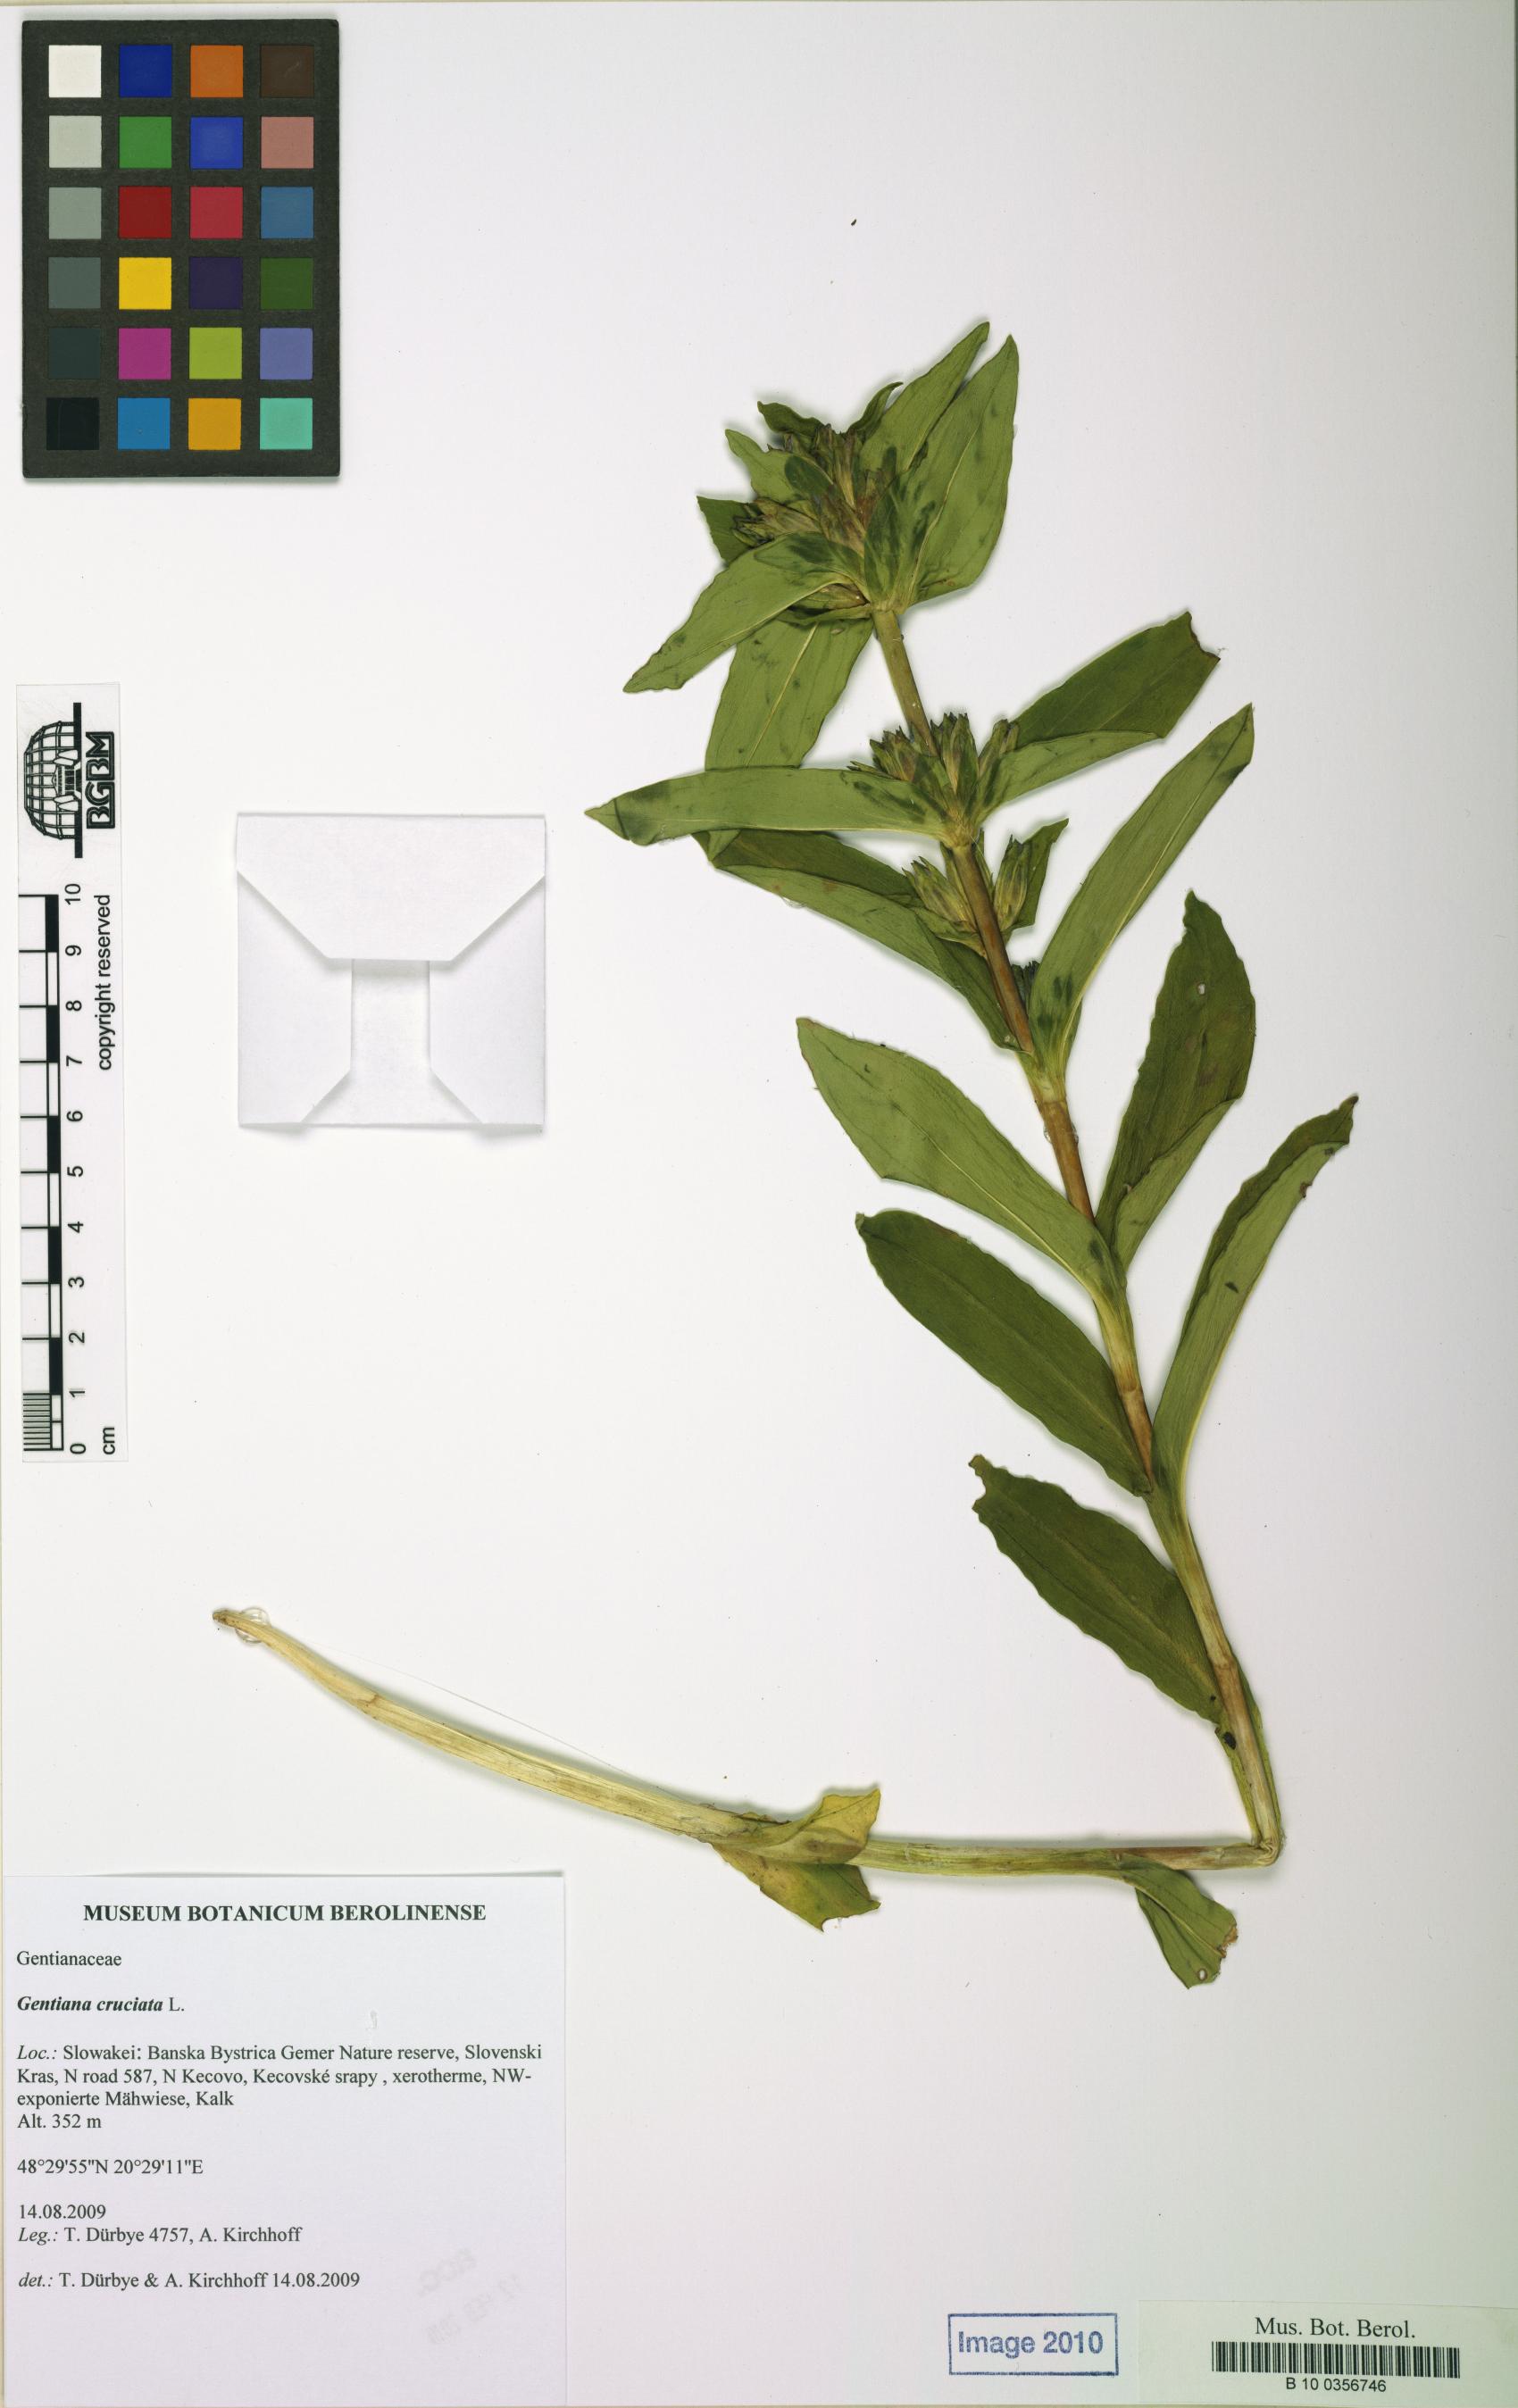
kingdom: Plantae
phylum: Tracheophyta
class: Magnoliopsida
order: Gentianales
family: Gentianaceae
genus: Gentiana
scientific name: Gentiana cruciata
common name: Cross gentian
